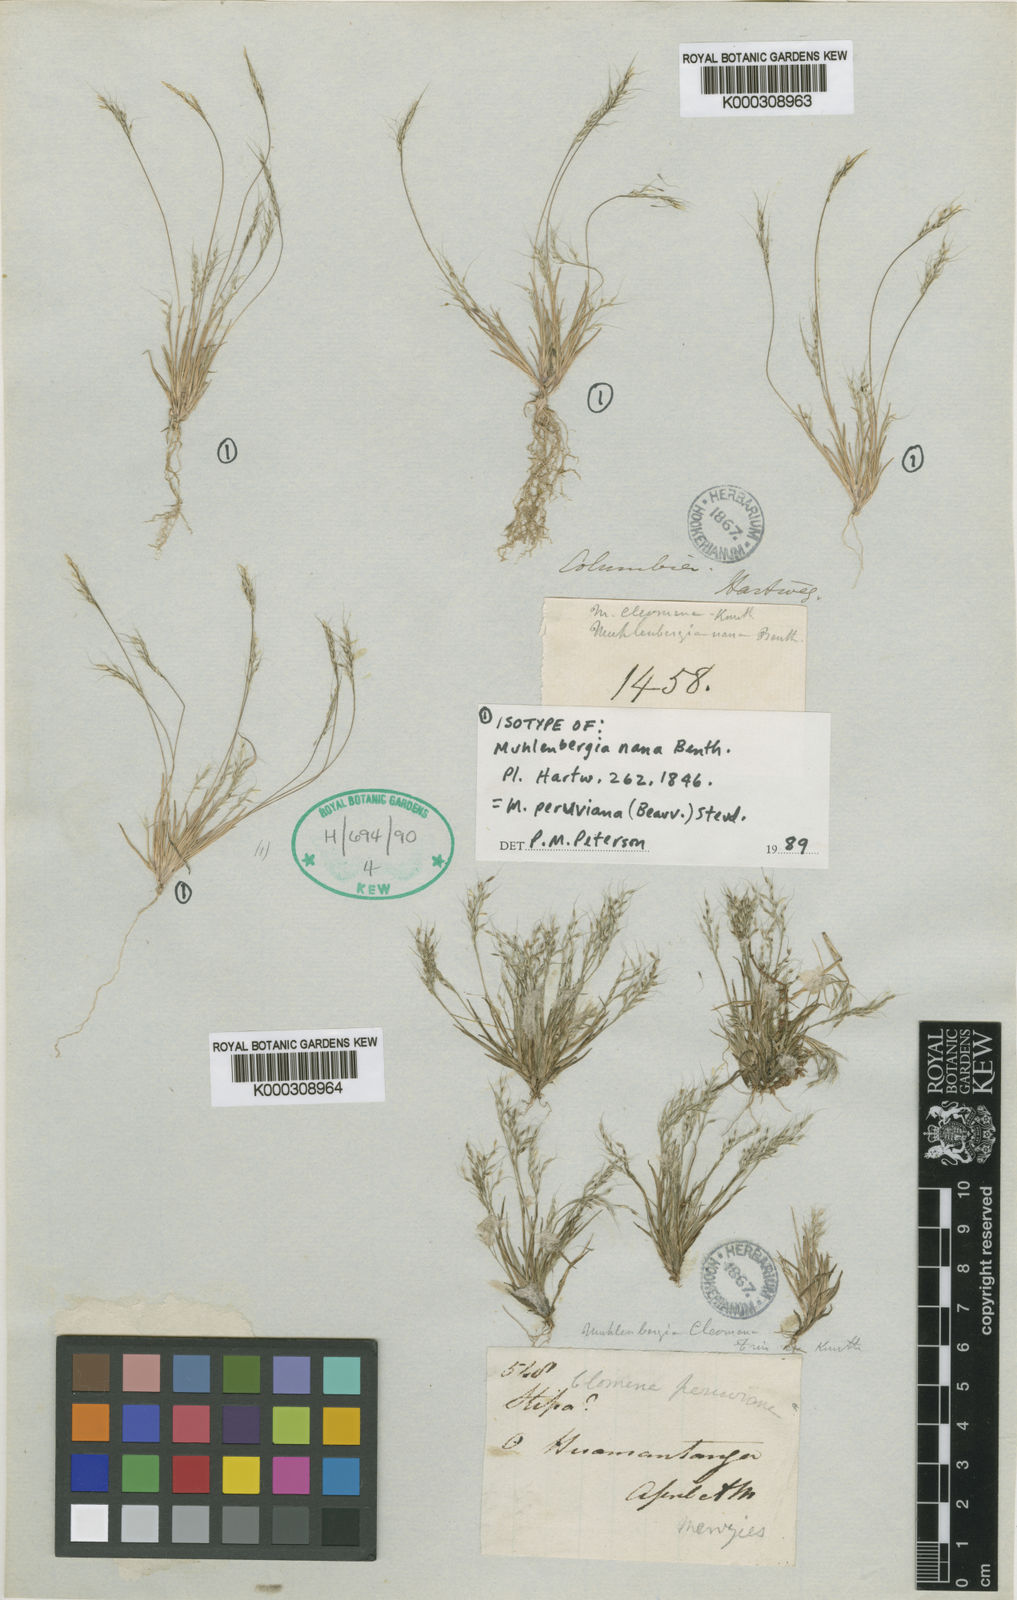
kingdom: Plantae
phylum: Tracheophyta
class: Liliopsida
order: Poales
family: Poaceae
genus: Muhlenbergia
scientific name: Muhlenbergia peruviana
